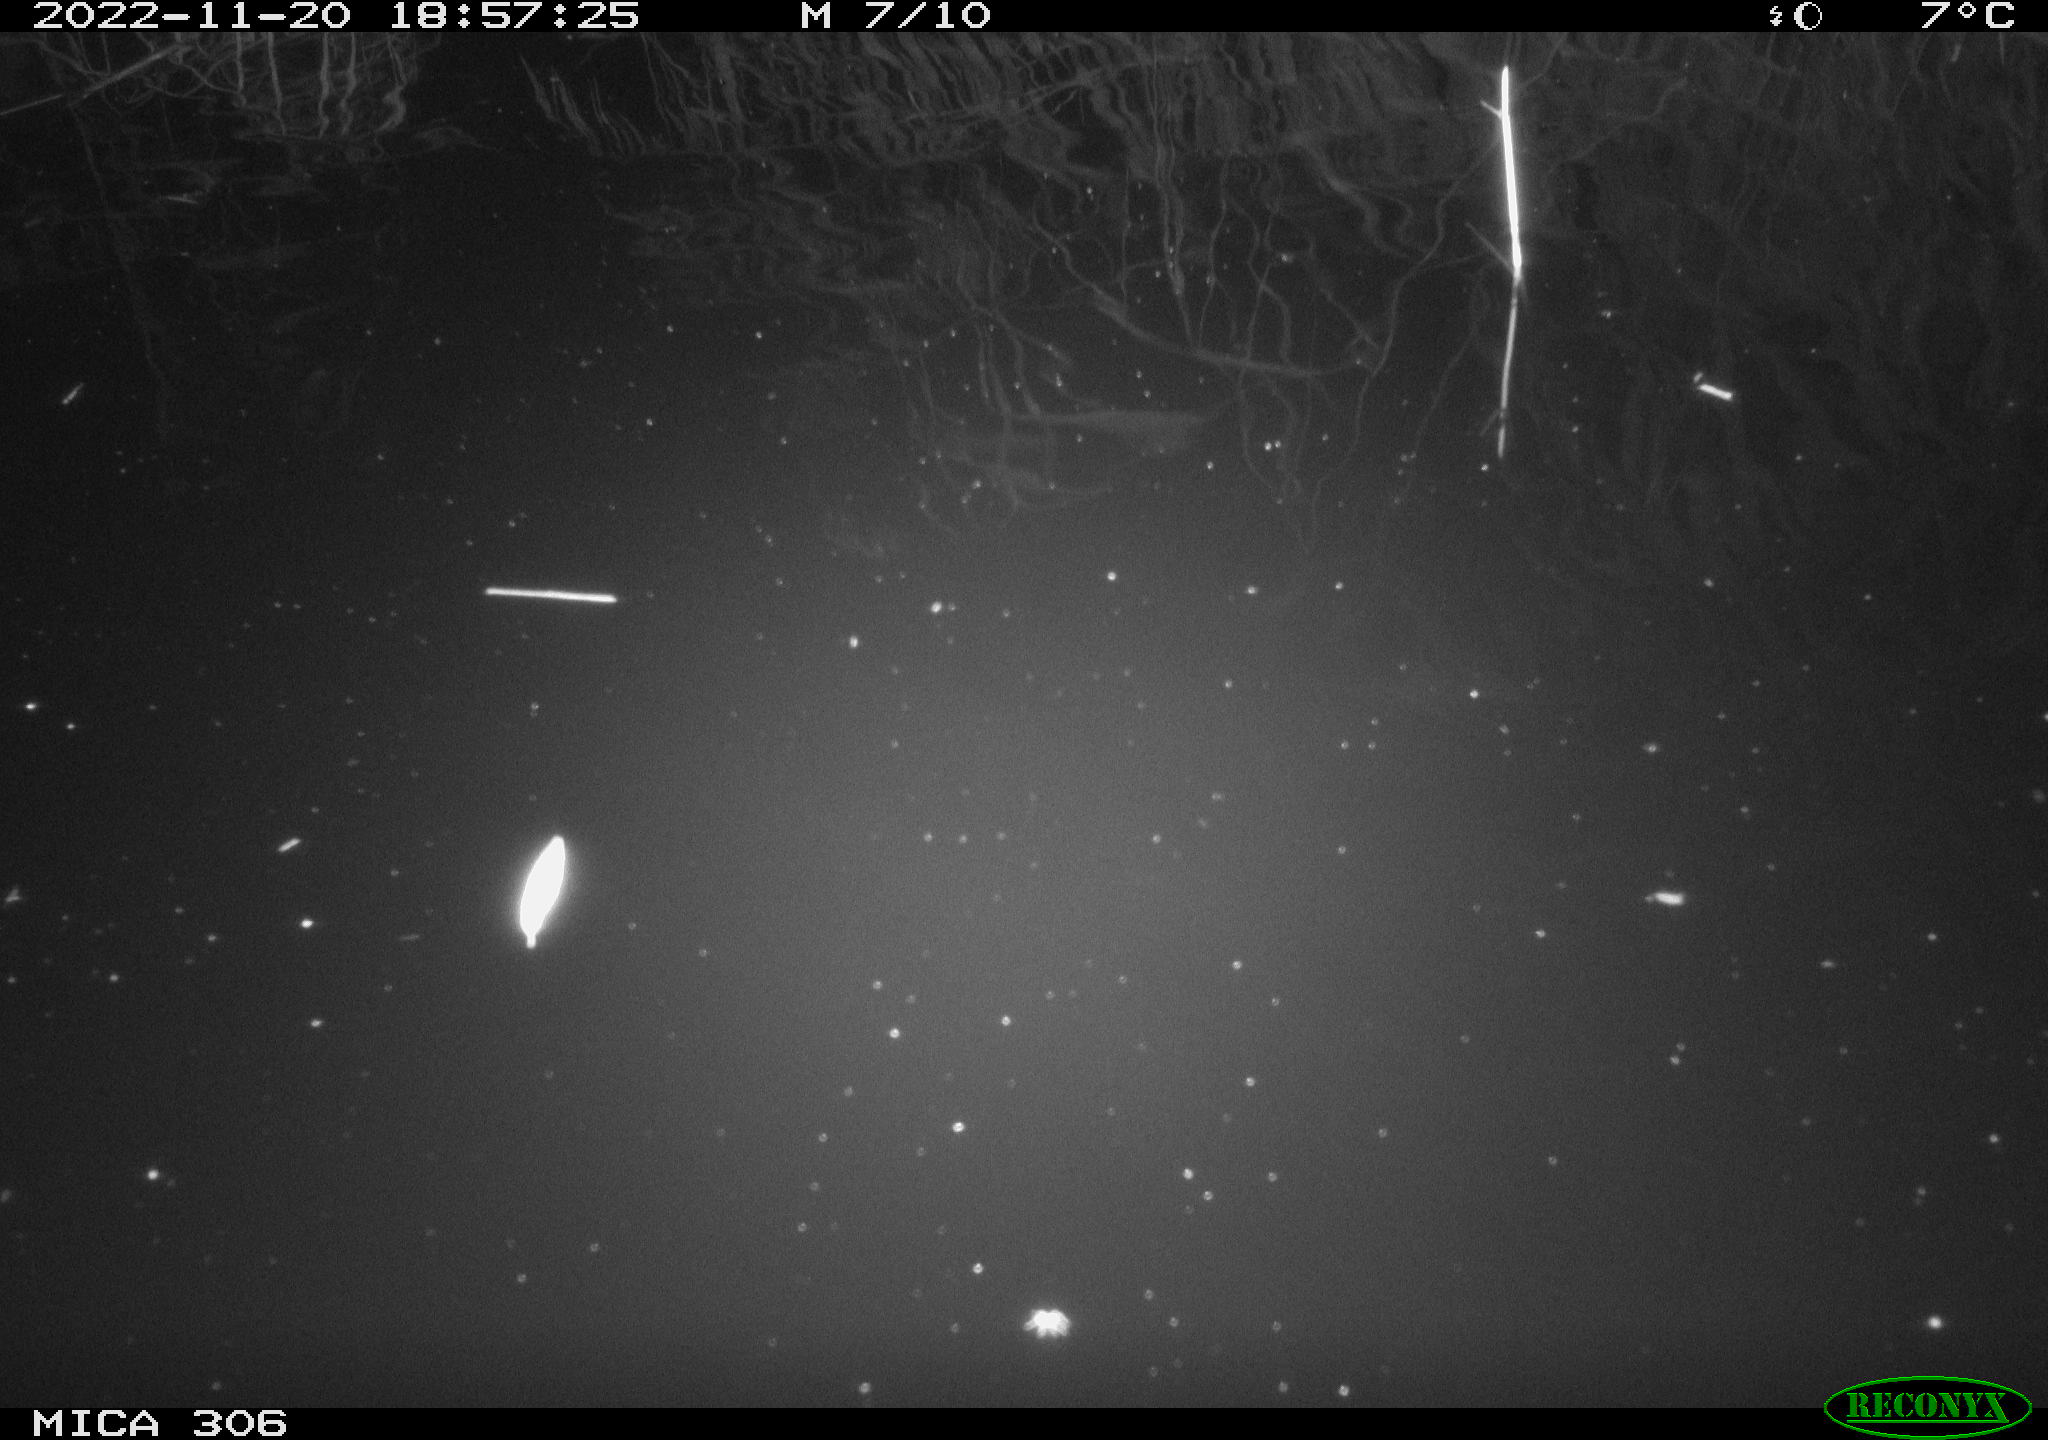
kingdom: Animalia
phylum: Chordata
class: Mammalia
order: Rodentia
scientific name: Rodentia
